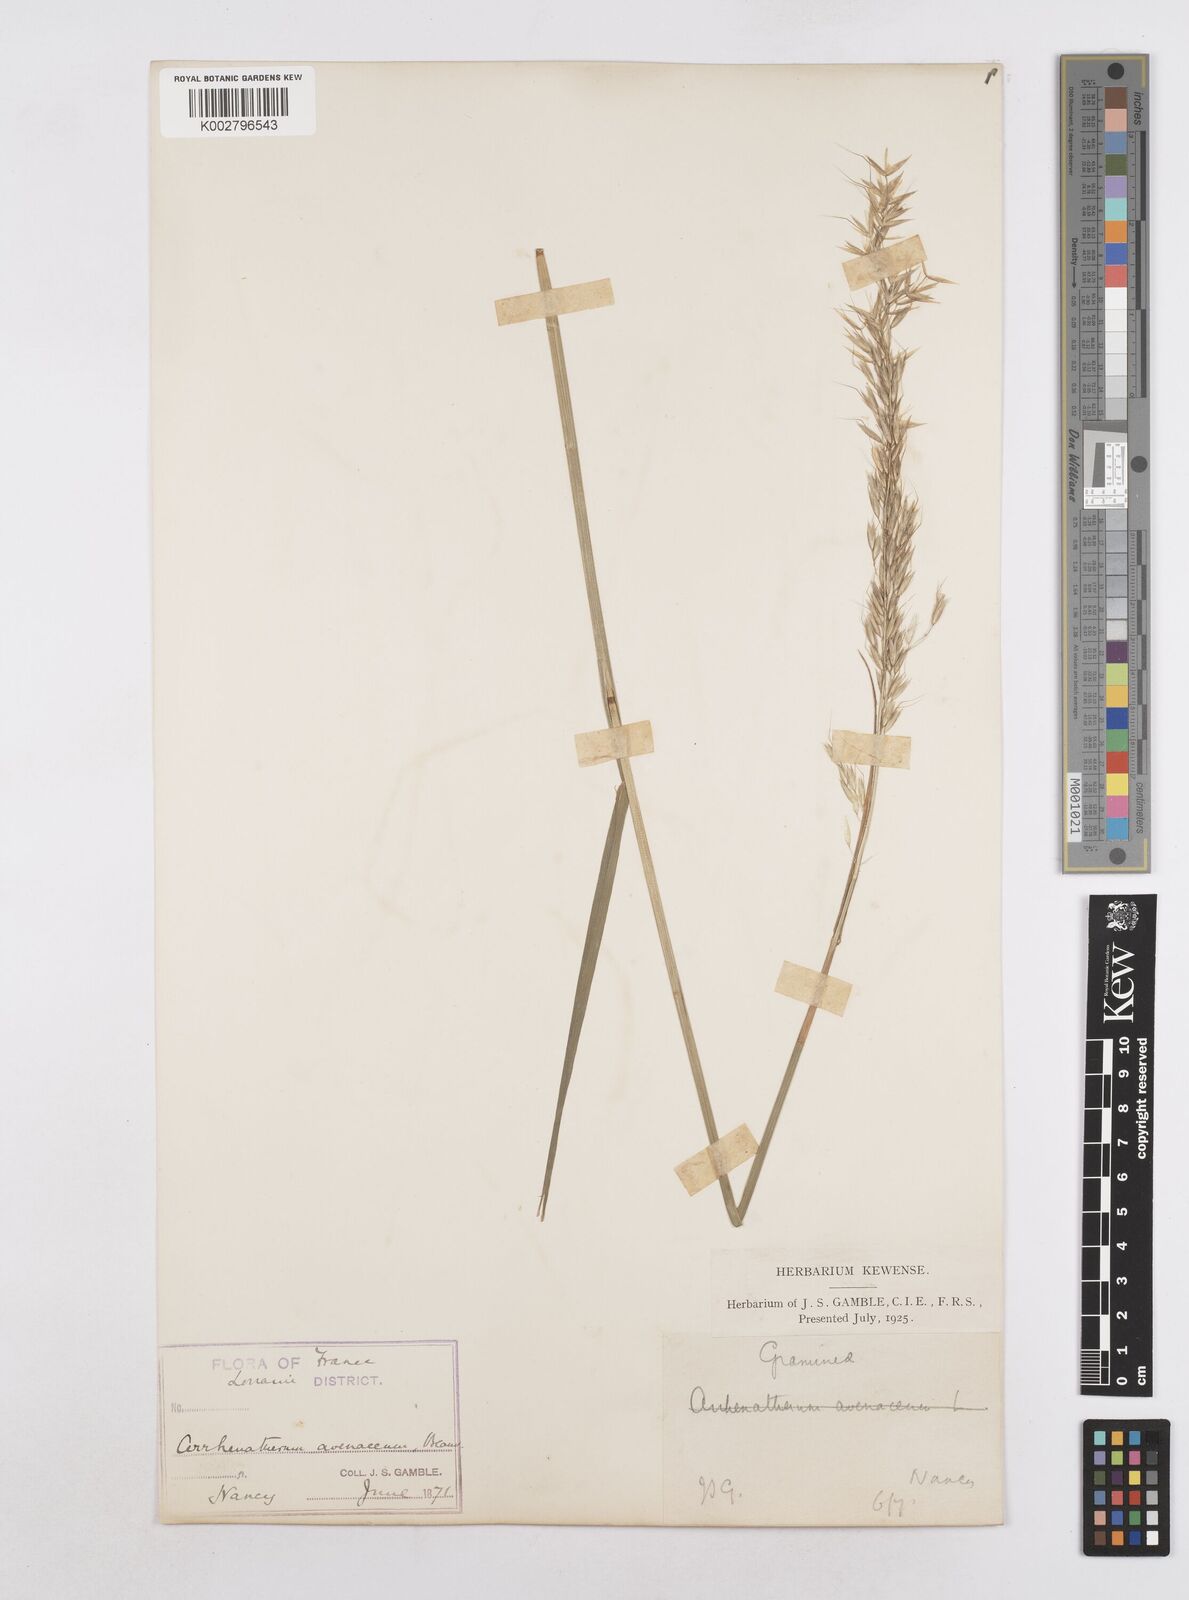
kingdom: Plantae
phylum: Tracheophyta
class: Liliopsida
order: Poales
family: Poaceae
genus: Arrhenatherum
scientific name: Arrhenatherum elatius
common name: Tall oatgrass
